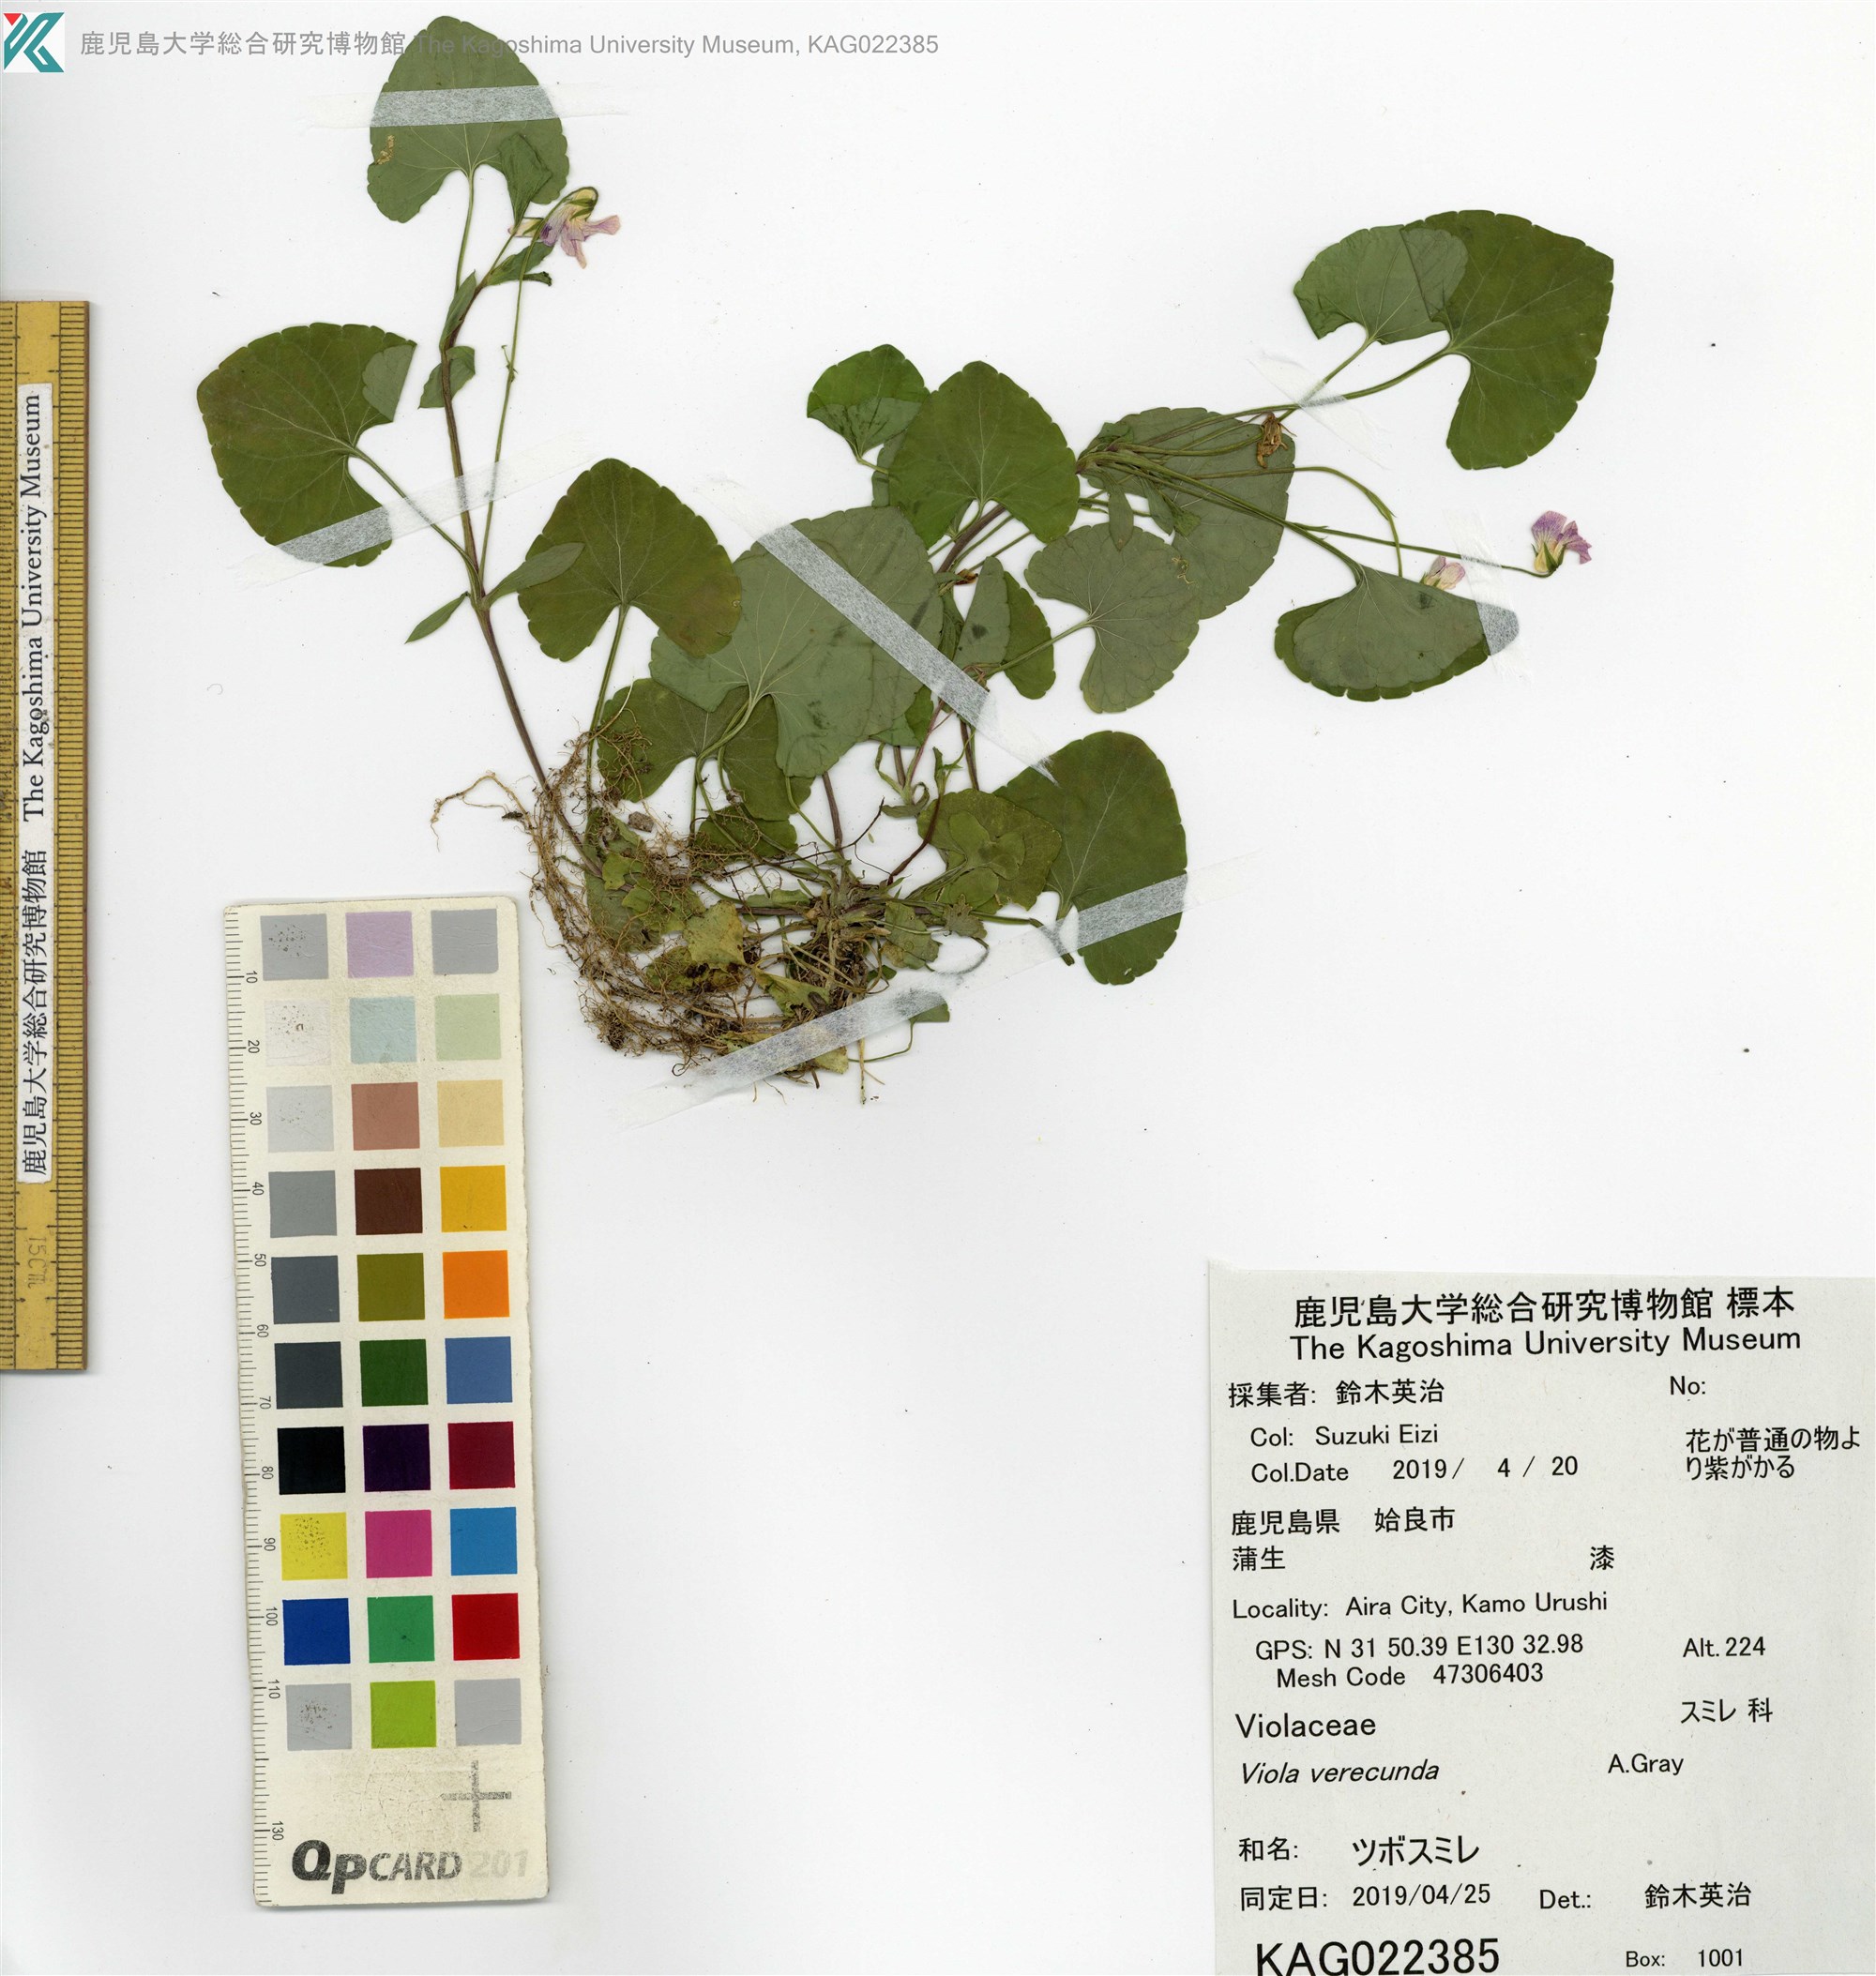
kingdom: Plantae
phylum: Tracheophyta
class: Magnoliopsida
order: Malpighiales
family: Violaceae
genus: Viola
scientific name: Viola hamiltoniana
